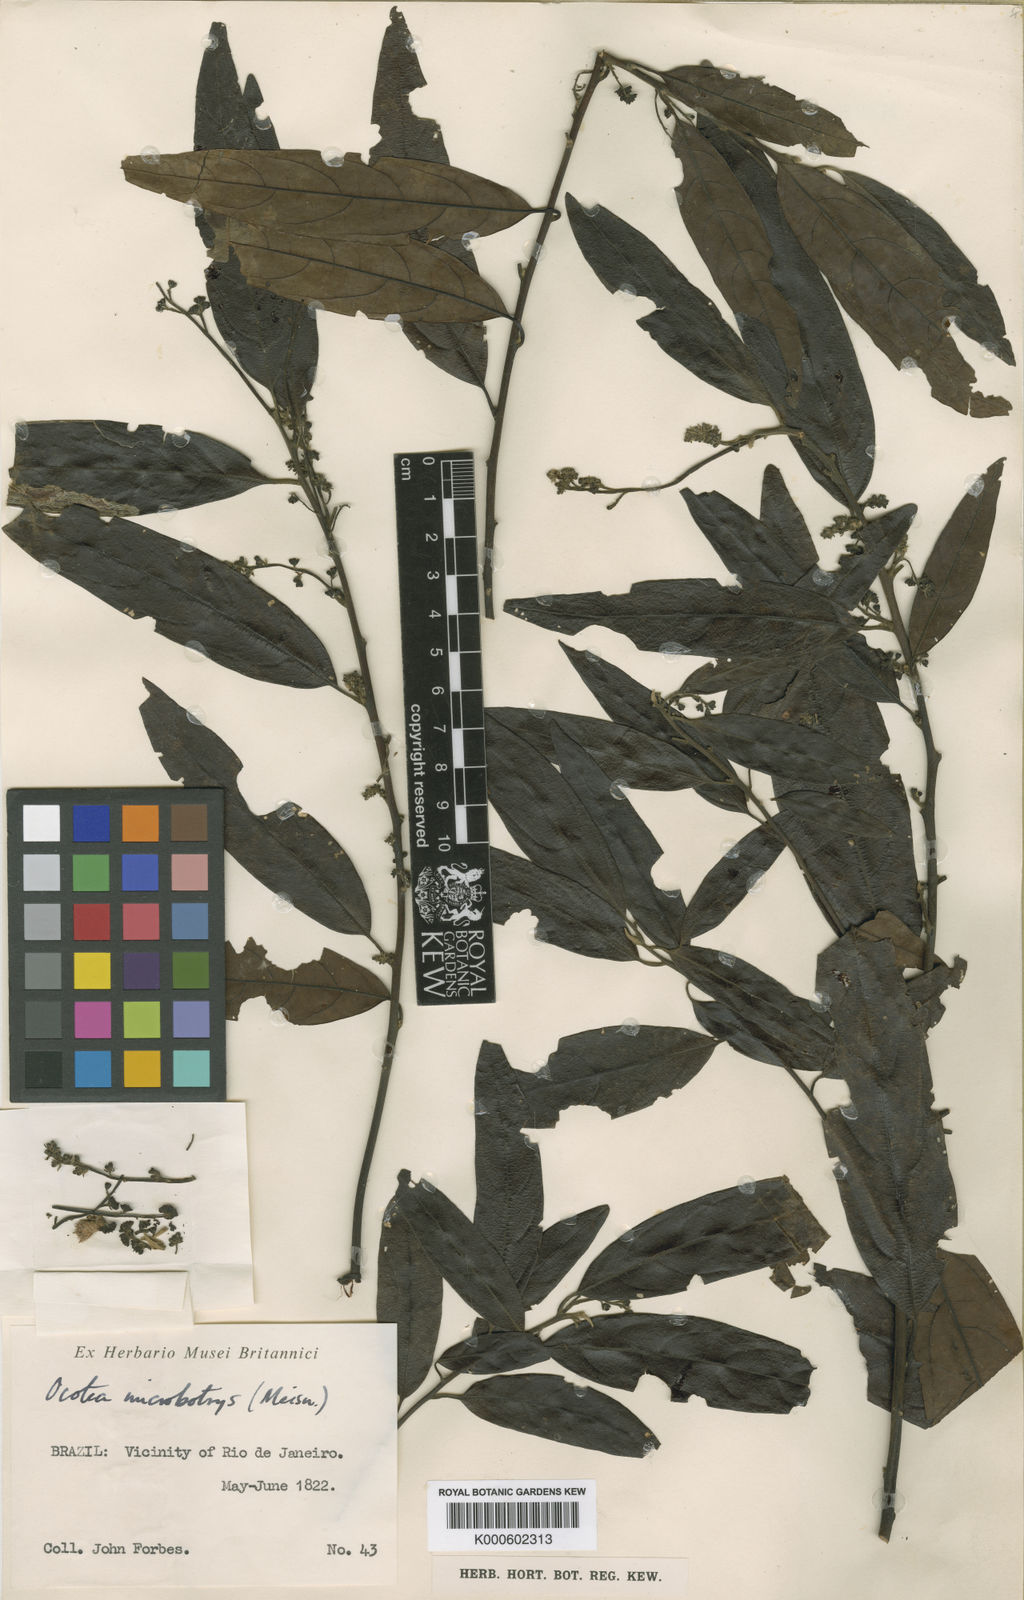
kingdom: Plantae
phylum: Tracheophyta
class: Magnoliopsida
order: Laurales
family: Lauraceae
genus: Ocotea
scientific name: Ocotea microbotrys
